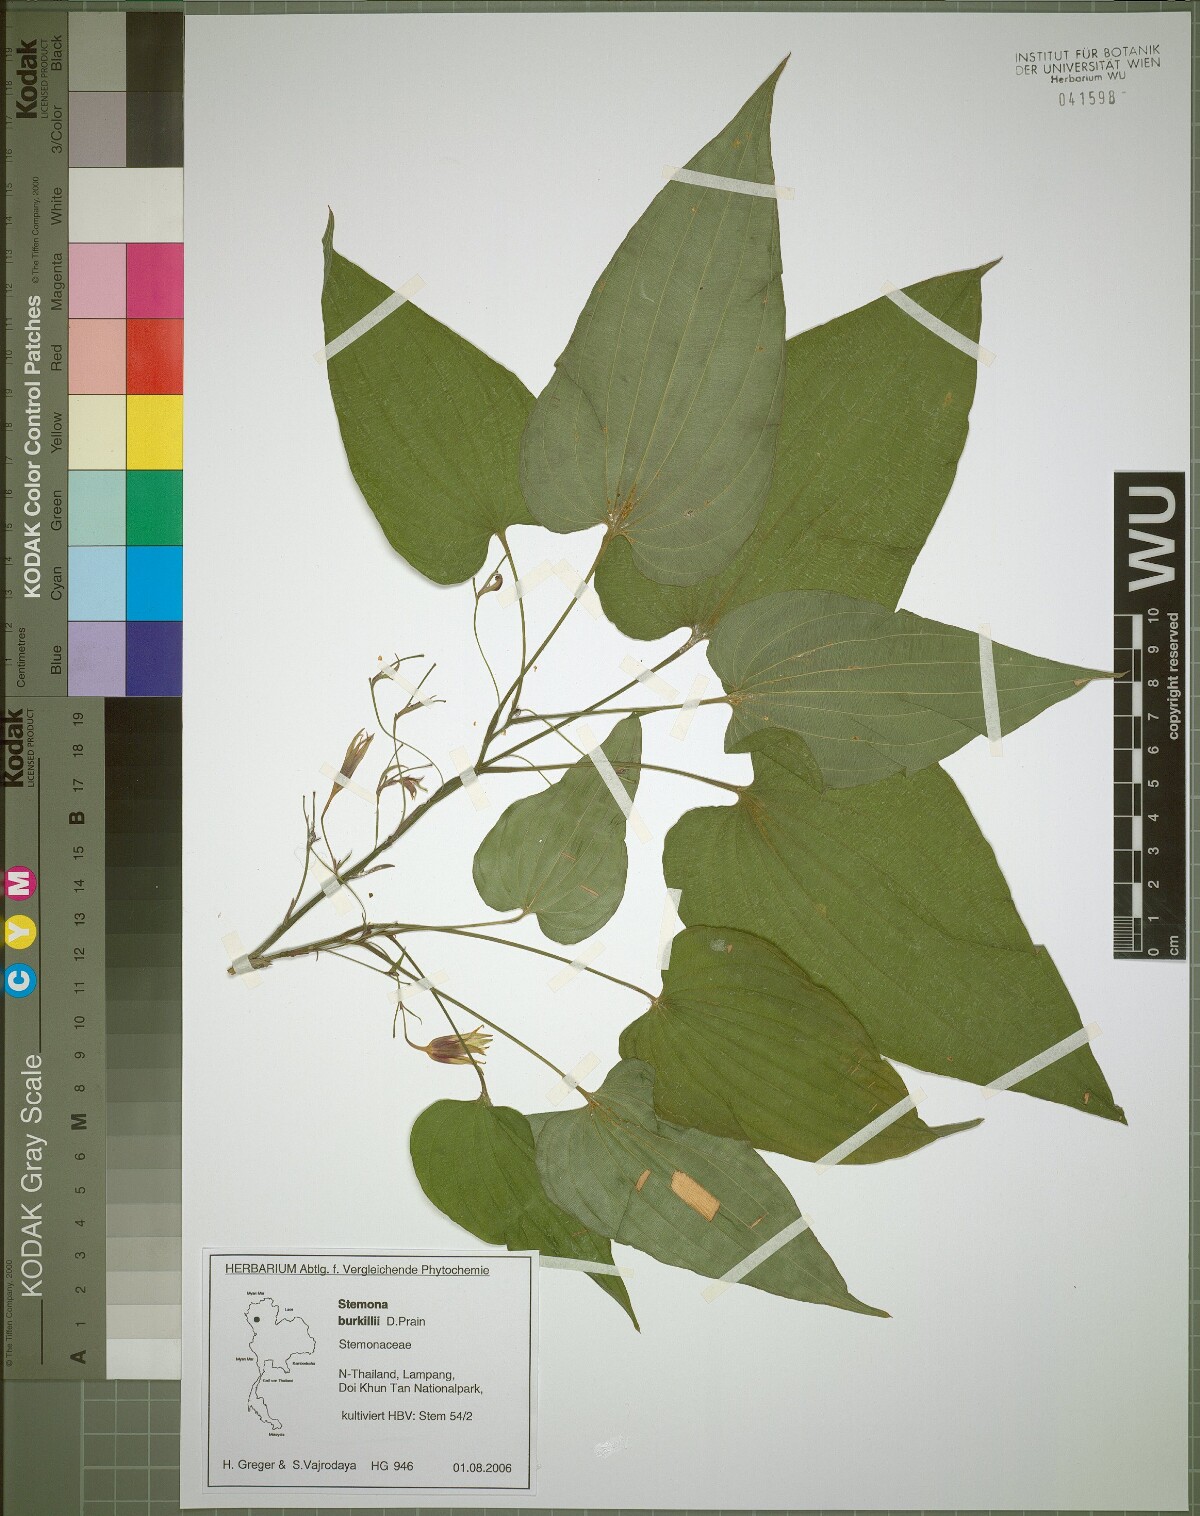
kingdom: Plantae
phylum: Tracheophyta
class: Liliopsida
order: Pandanales
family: Stemonaceae
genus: Stemona
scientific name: Stemona burkillii
